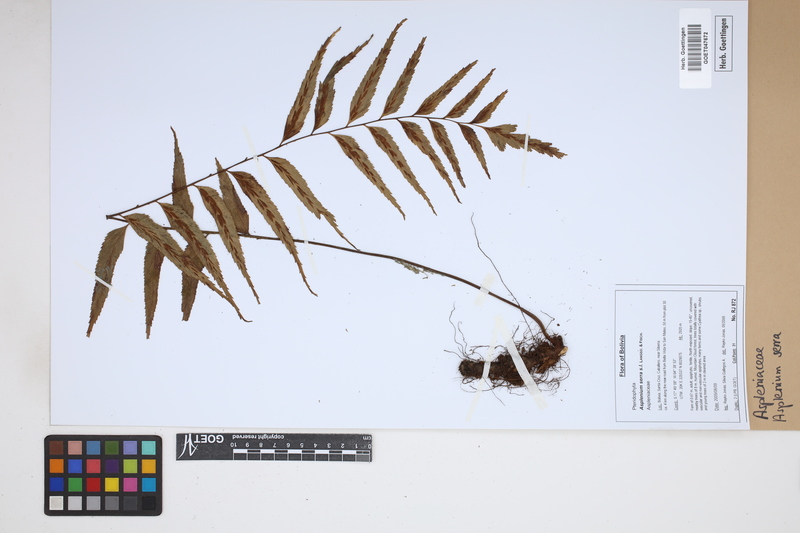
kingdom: Plantae
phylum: Tracheophyta
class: Polypodiopsida
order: Polypodiales
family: Aspleniaceae
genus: Asplenium
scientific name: Asplenium serra
